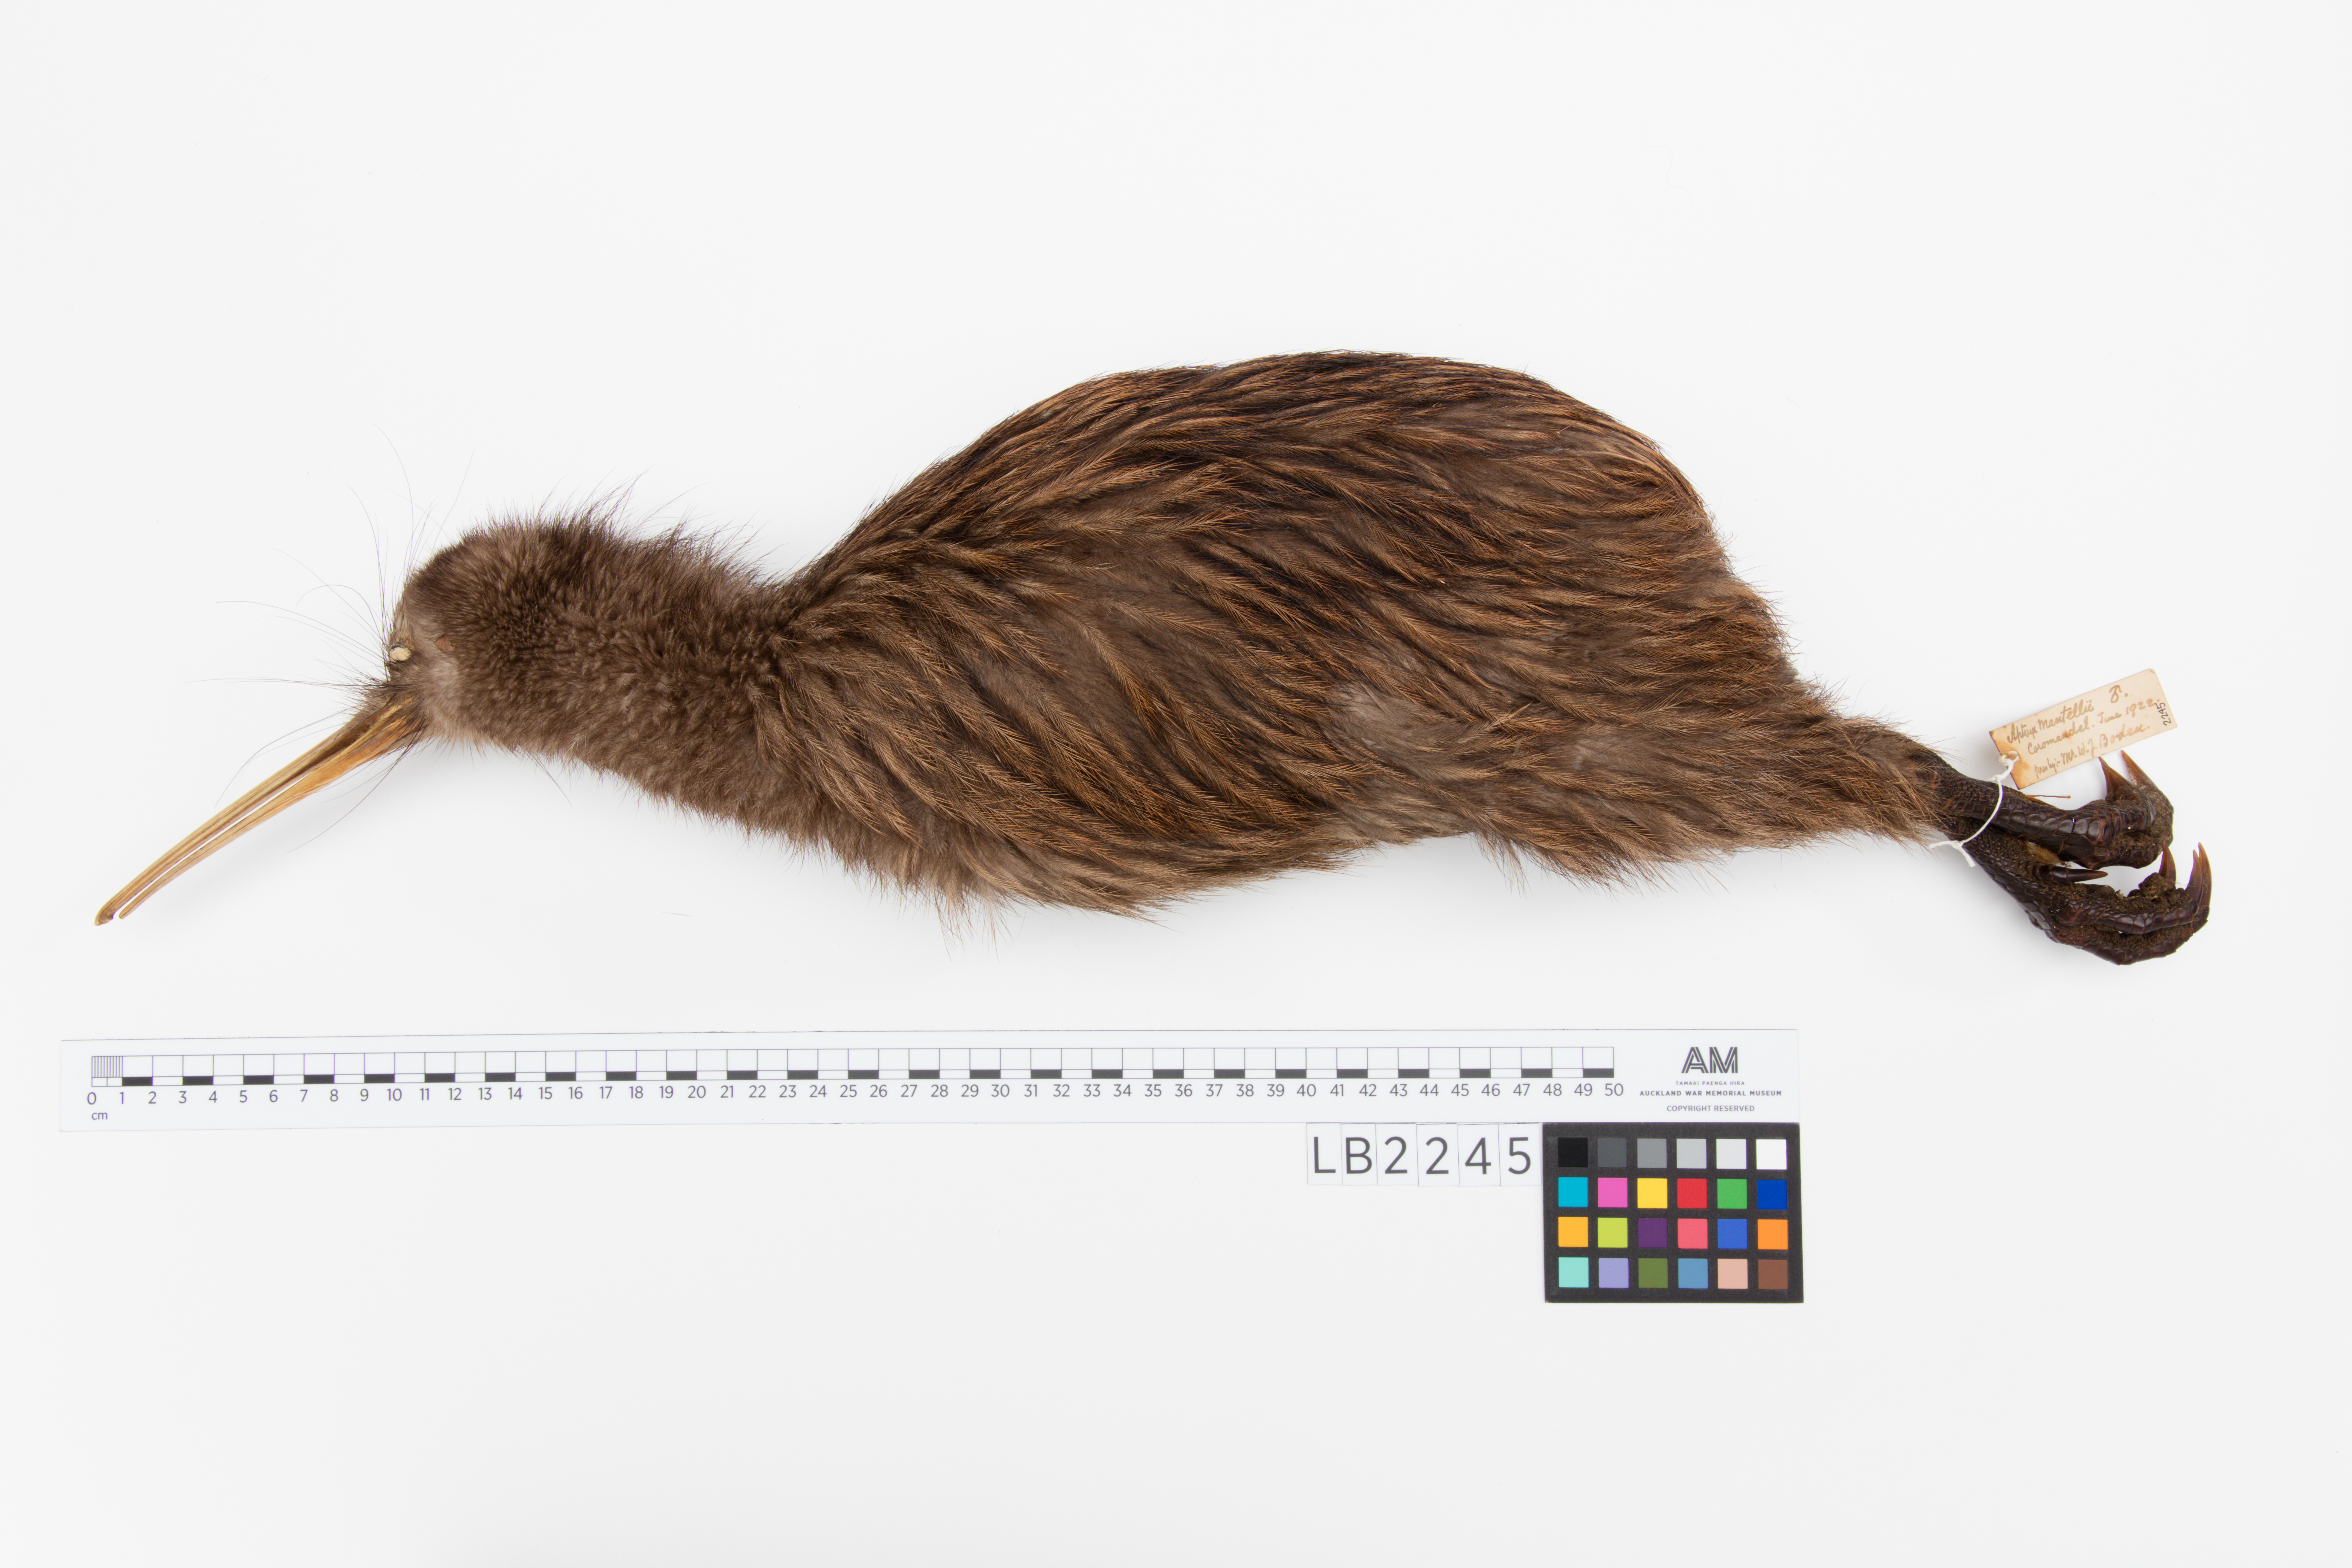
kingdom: Animalia
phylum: Chordata
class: Aves
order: Apterygiformes
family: Apterygidae
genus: Apteryx
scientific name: Apteryx mantelli
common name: North island brown kiwi
